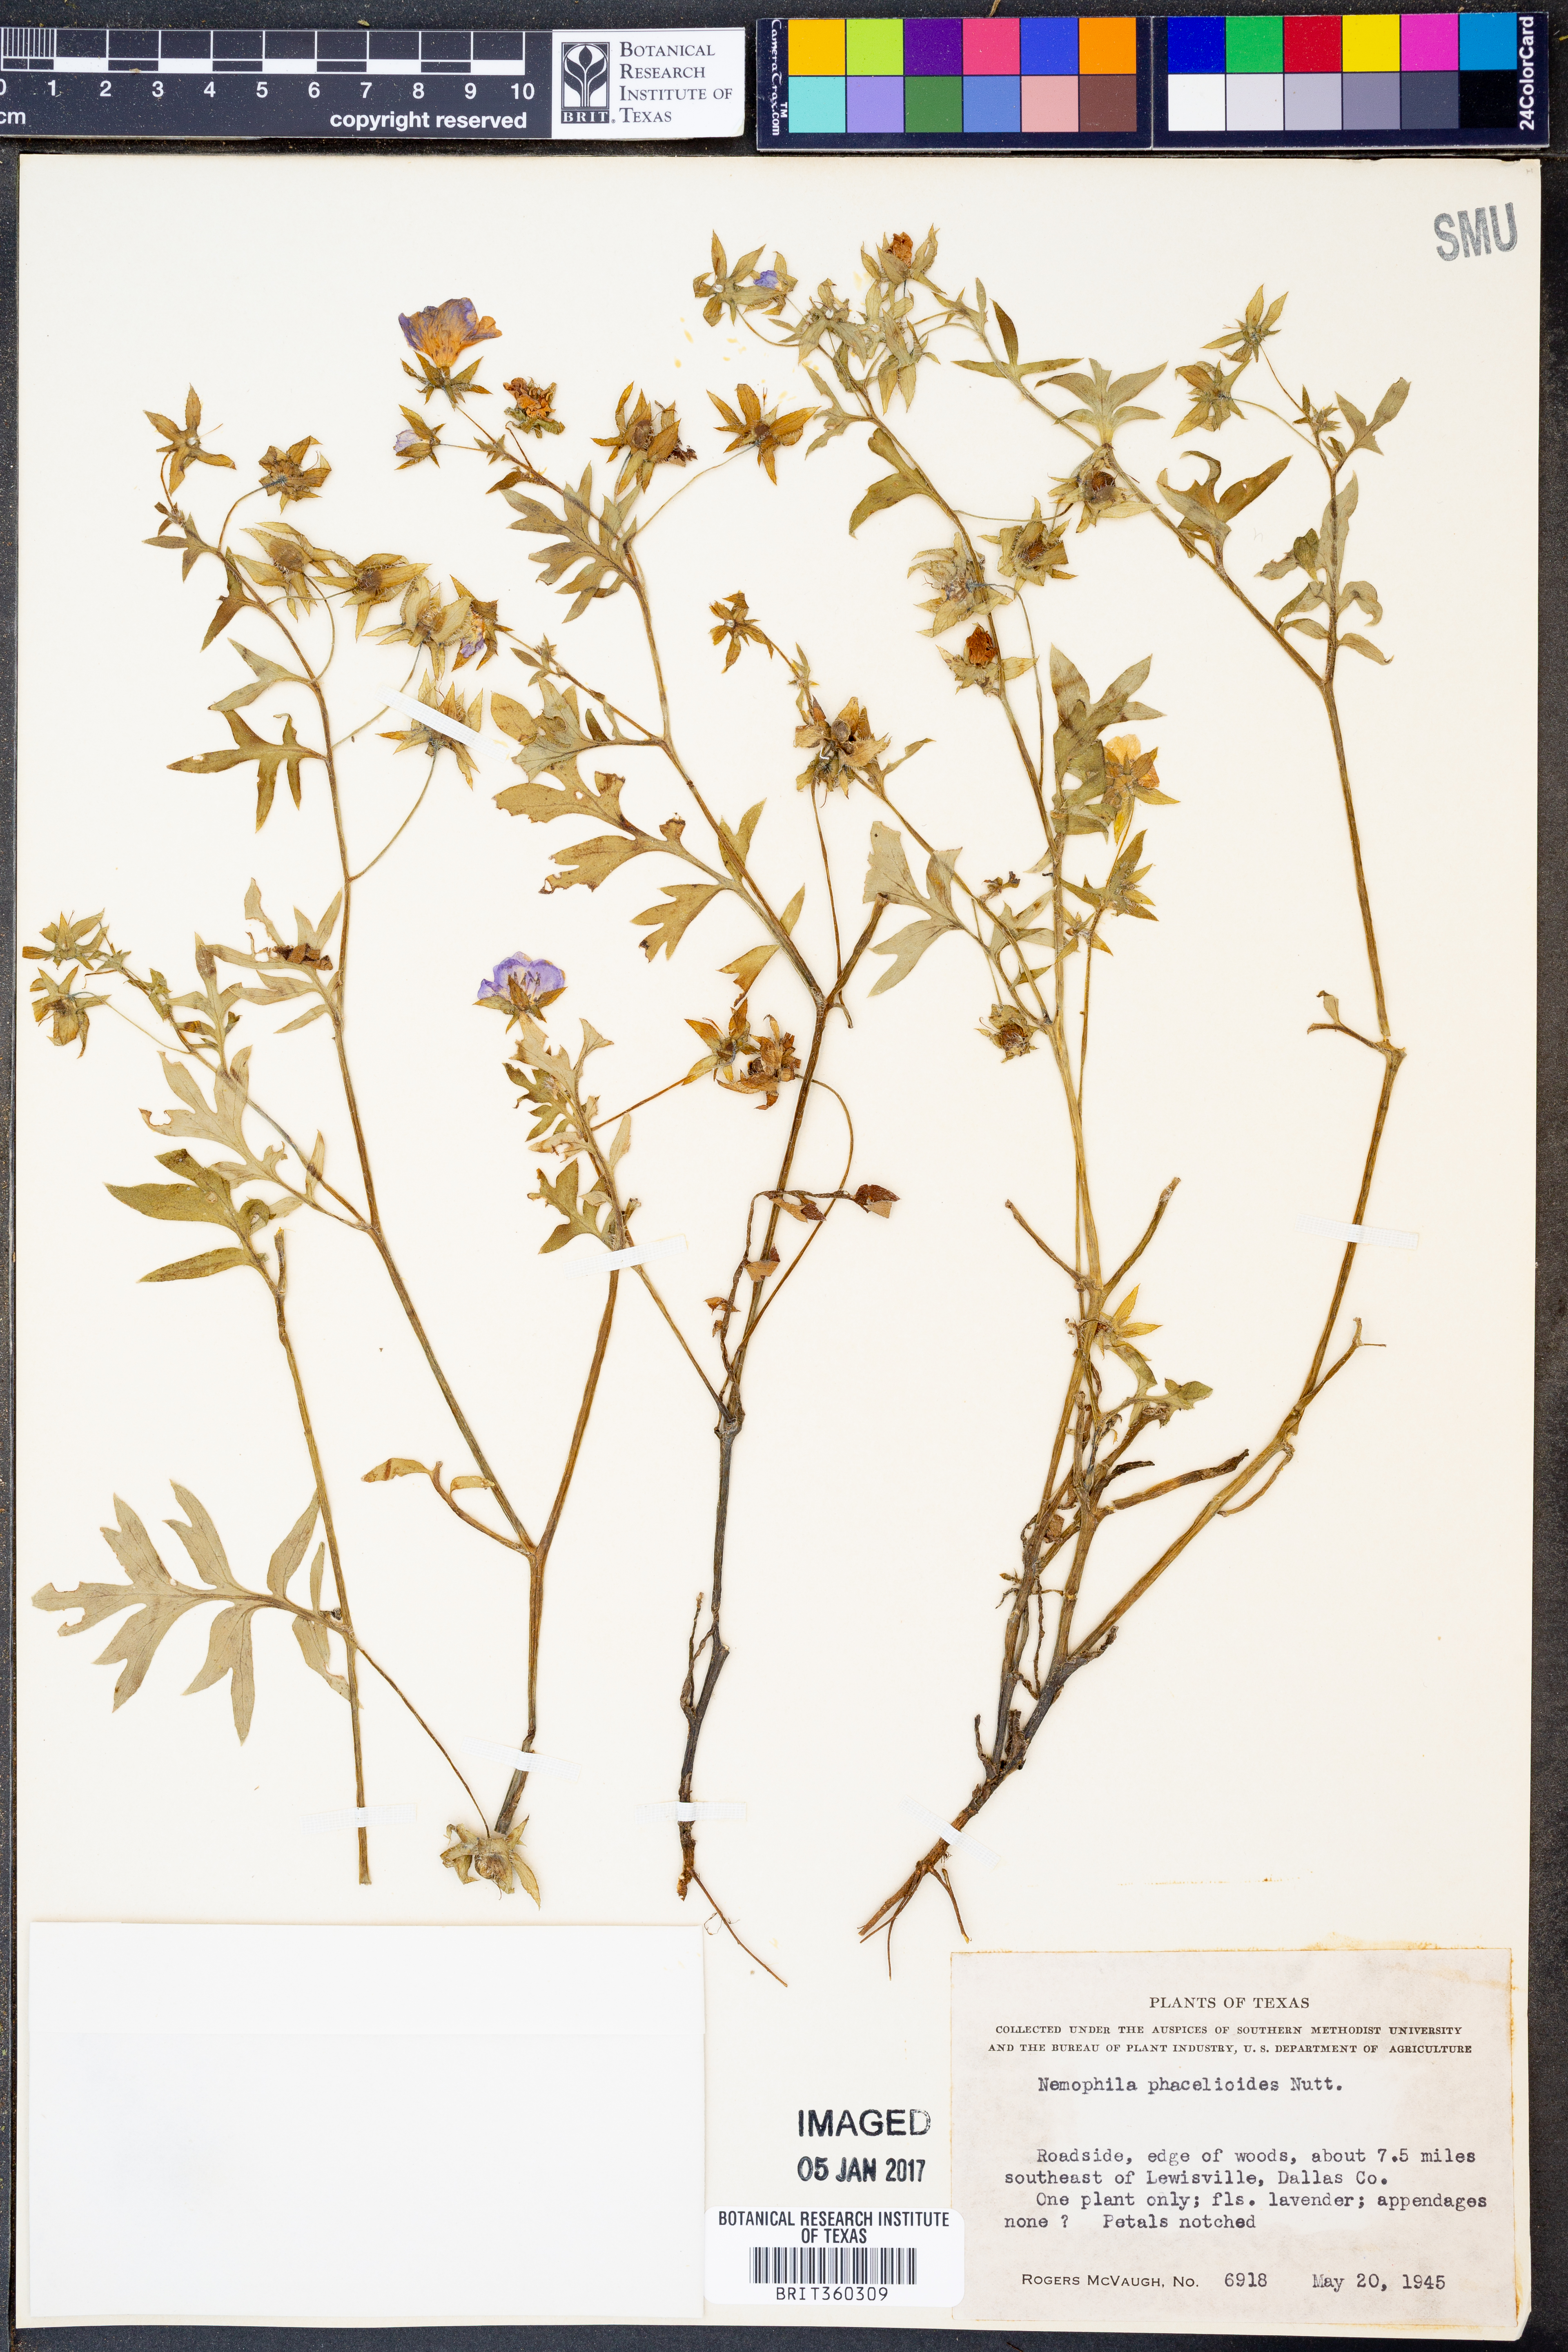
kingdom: Plantae
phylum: Tracheophyta
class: Magnoliopsida
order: Boraginales
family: Hydrophyllaceae
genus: Nemophila
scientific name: Nemophila phacelioides
